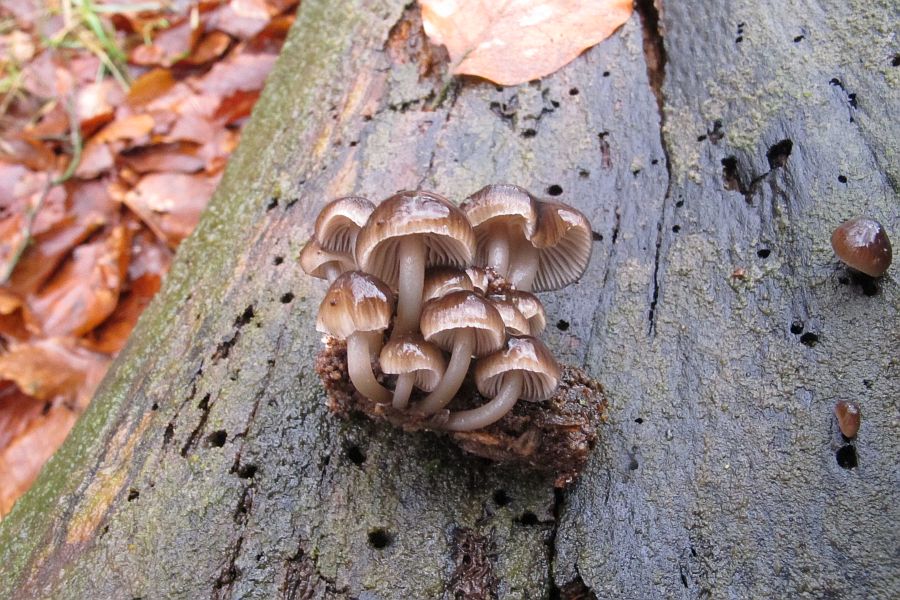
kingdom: Fungi
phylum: Basidiomycota
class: Agaricomycetes
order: Agaricales
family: Mycenaceae
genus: Mycena
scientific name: Mycena tintinnabulum
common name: vinter-huesvamp
